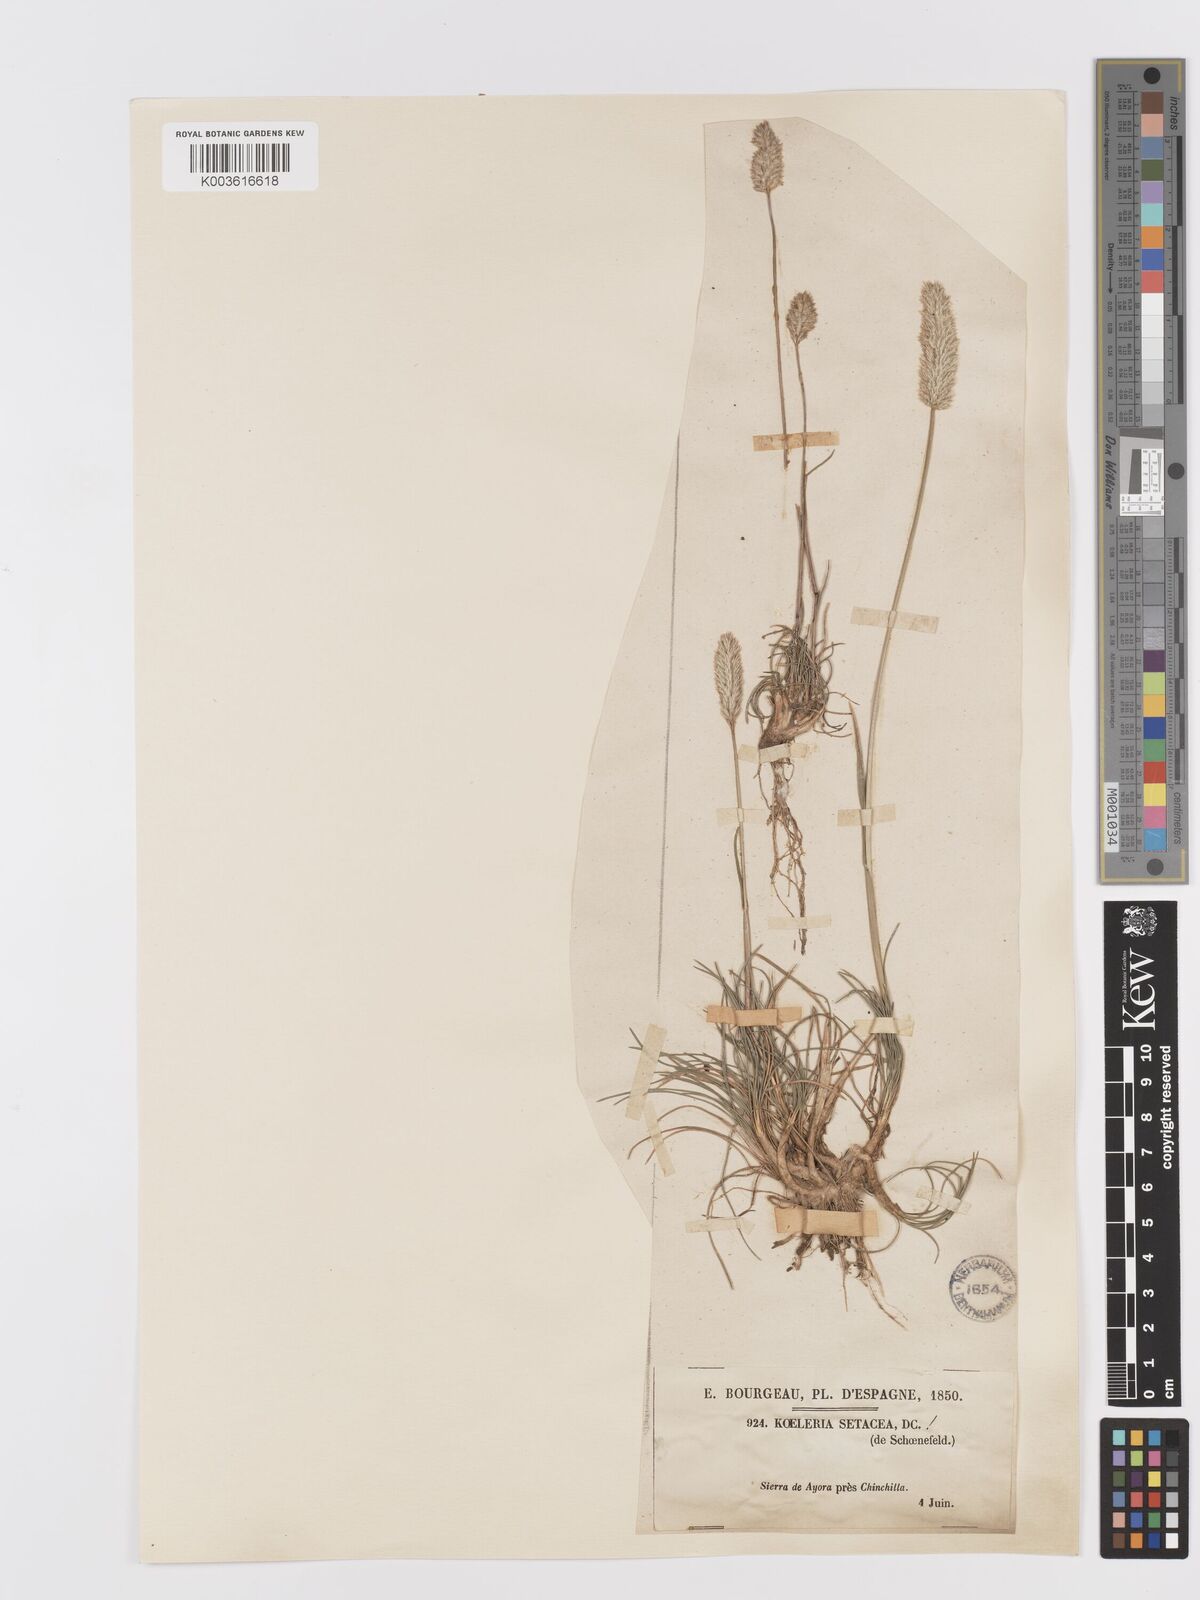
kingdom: Plantae
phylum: Tracheophyta
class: Liliopsida
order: Poales
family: Poaceae
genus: Koeleria
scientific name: Koeleria vallesiana
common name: Somerset hair-grass
